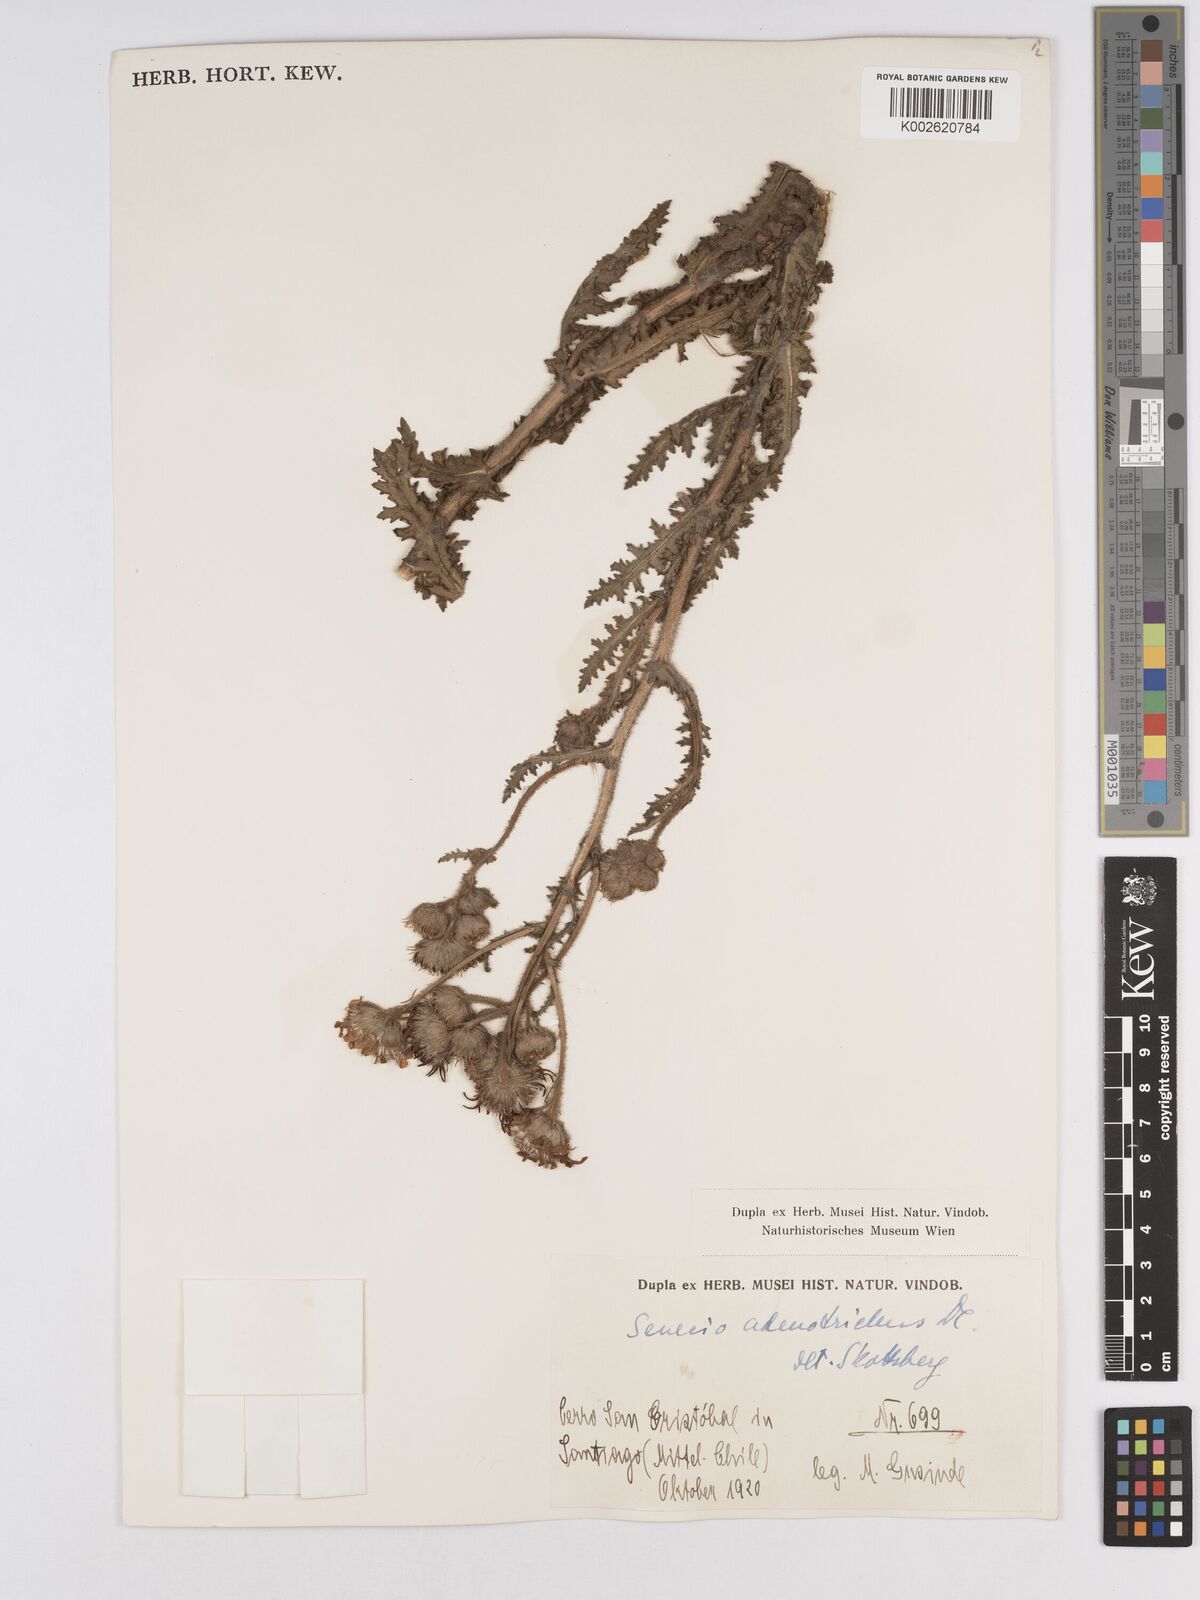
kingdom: Plantae
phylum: Tracheophyta
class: Magnoliopsida
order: Asterales
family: Asteraceae
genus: Senecio
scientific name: Senecio adenotrichius
